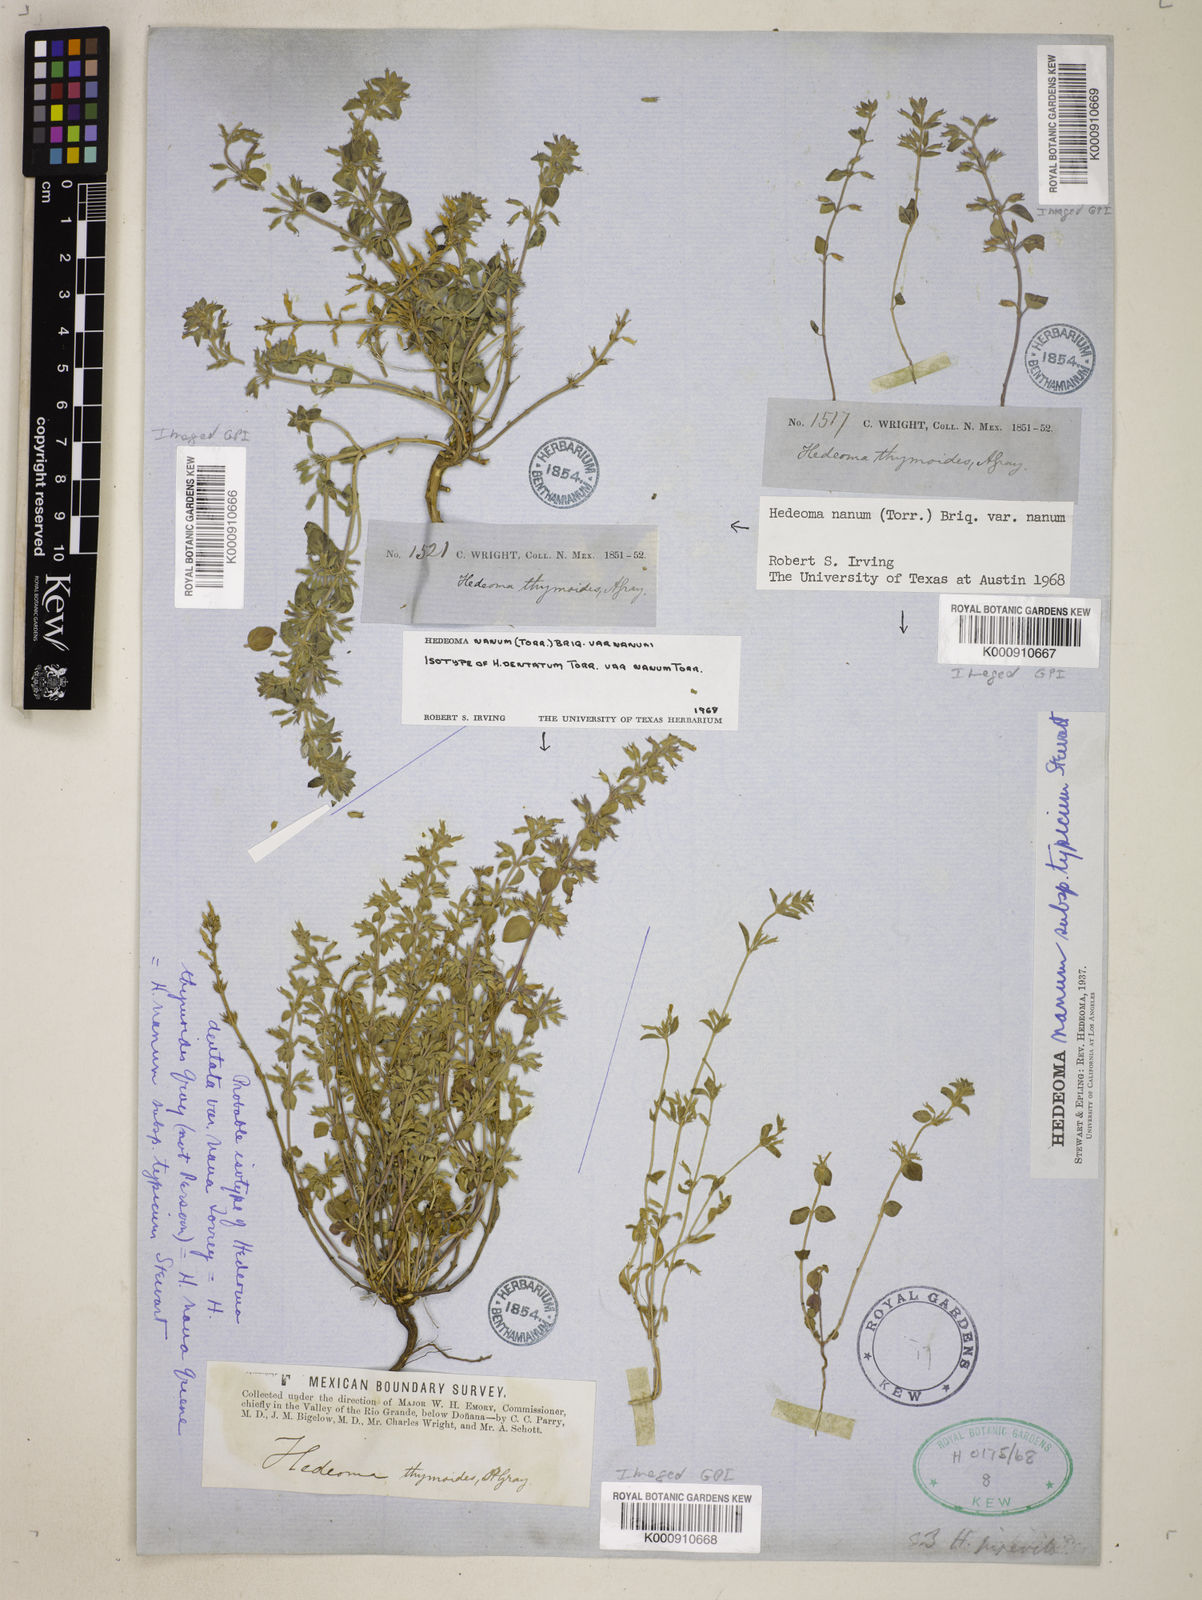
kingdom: Plantae
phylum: Tracheophyta
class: Magnoliopsida
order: Lamiales
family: Lamiaceae
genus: Hedeoma
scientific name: Hedeoma
